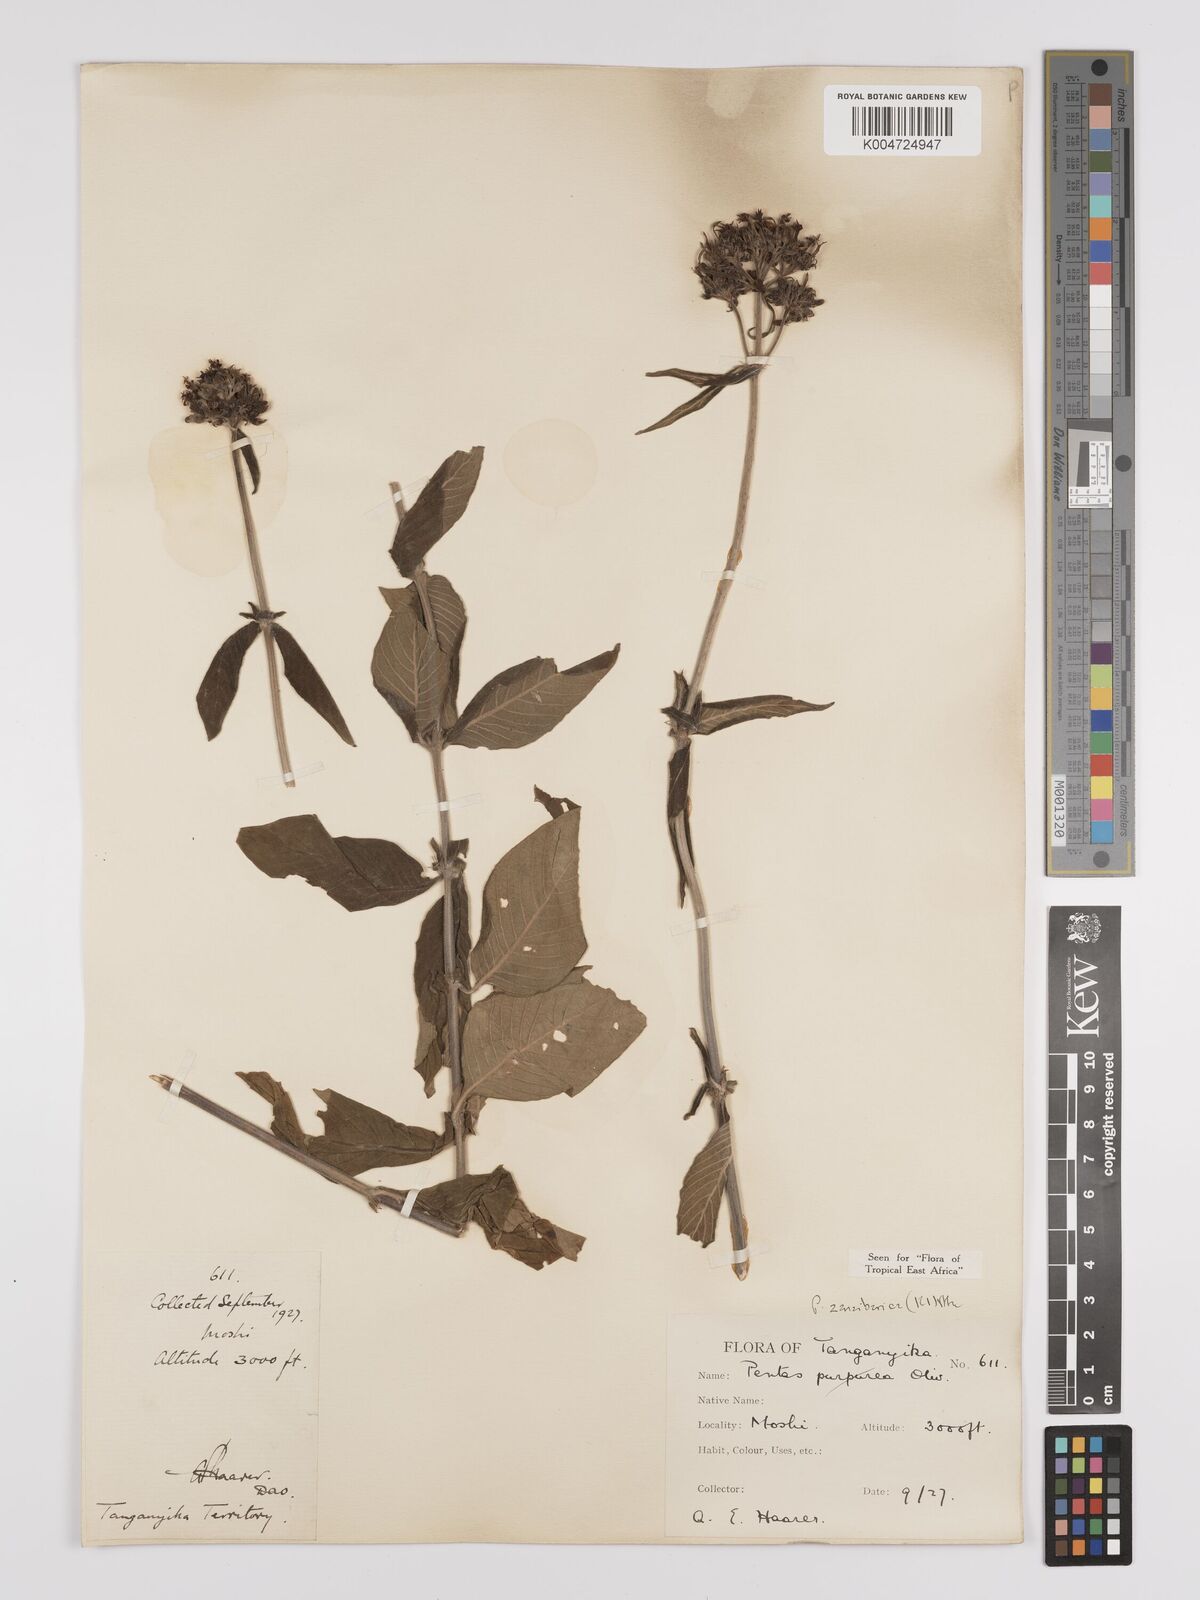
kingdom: Plantae
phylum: Tracheophyta
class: Magnoliopsida
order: Gentianales
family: Rubiaceae
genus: Pentas
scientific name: Pentas zanzibarica
